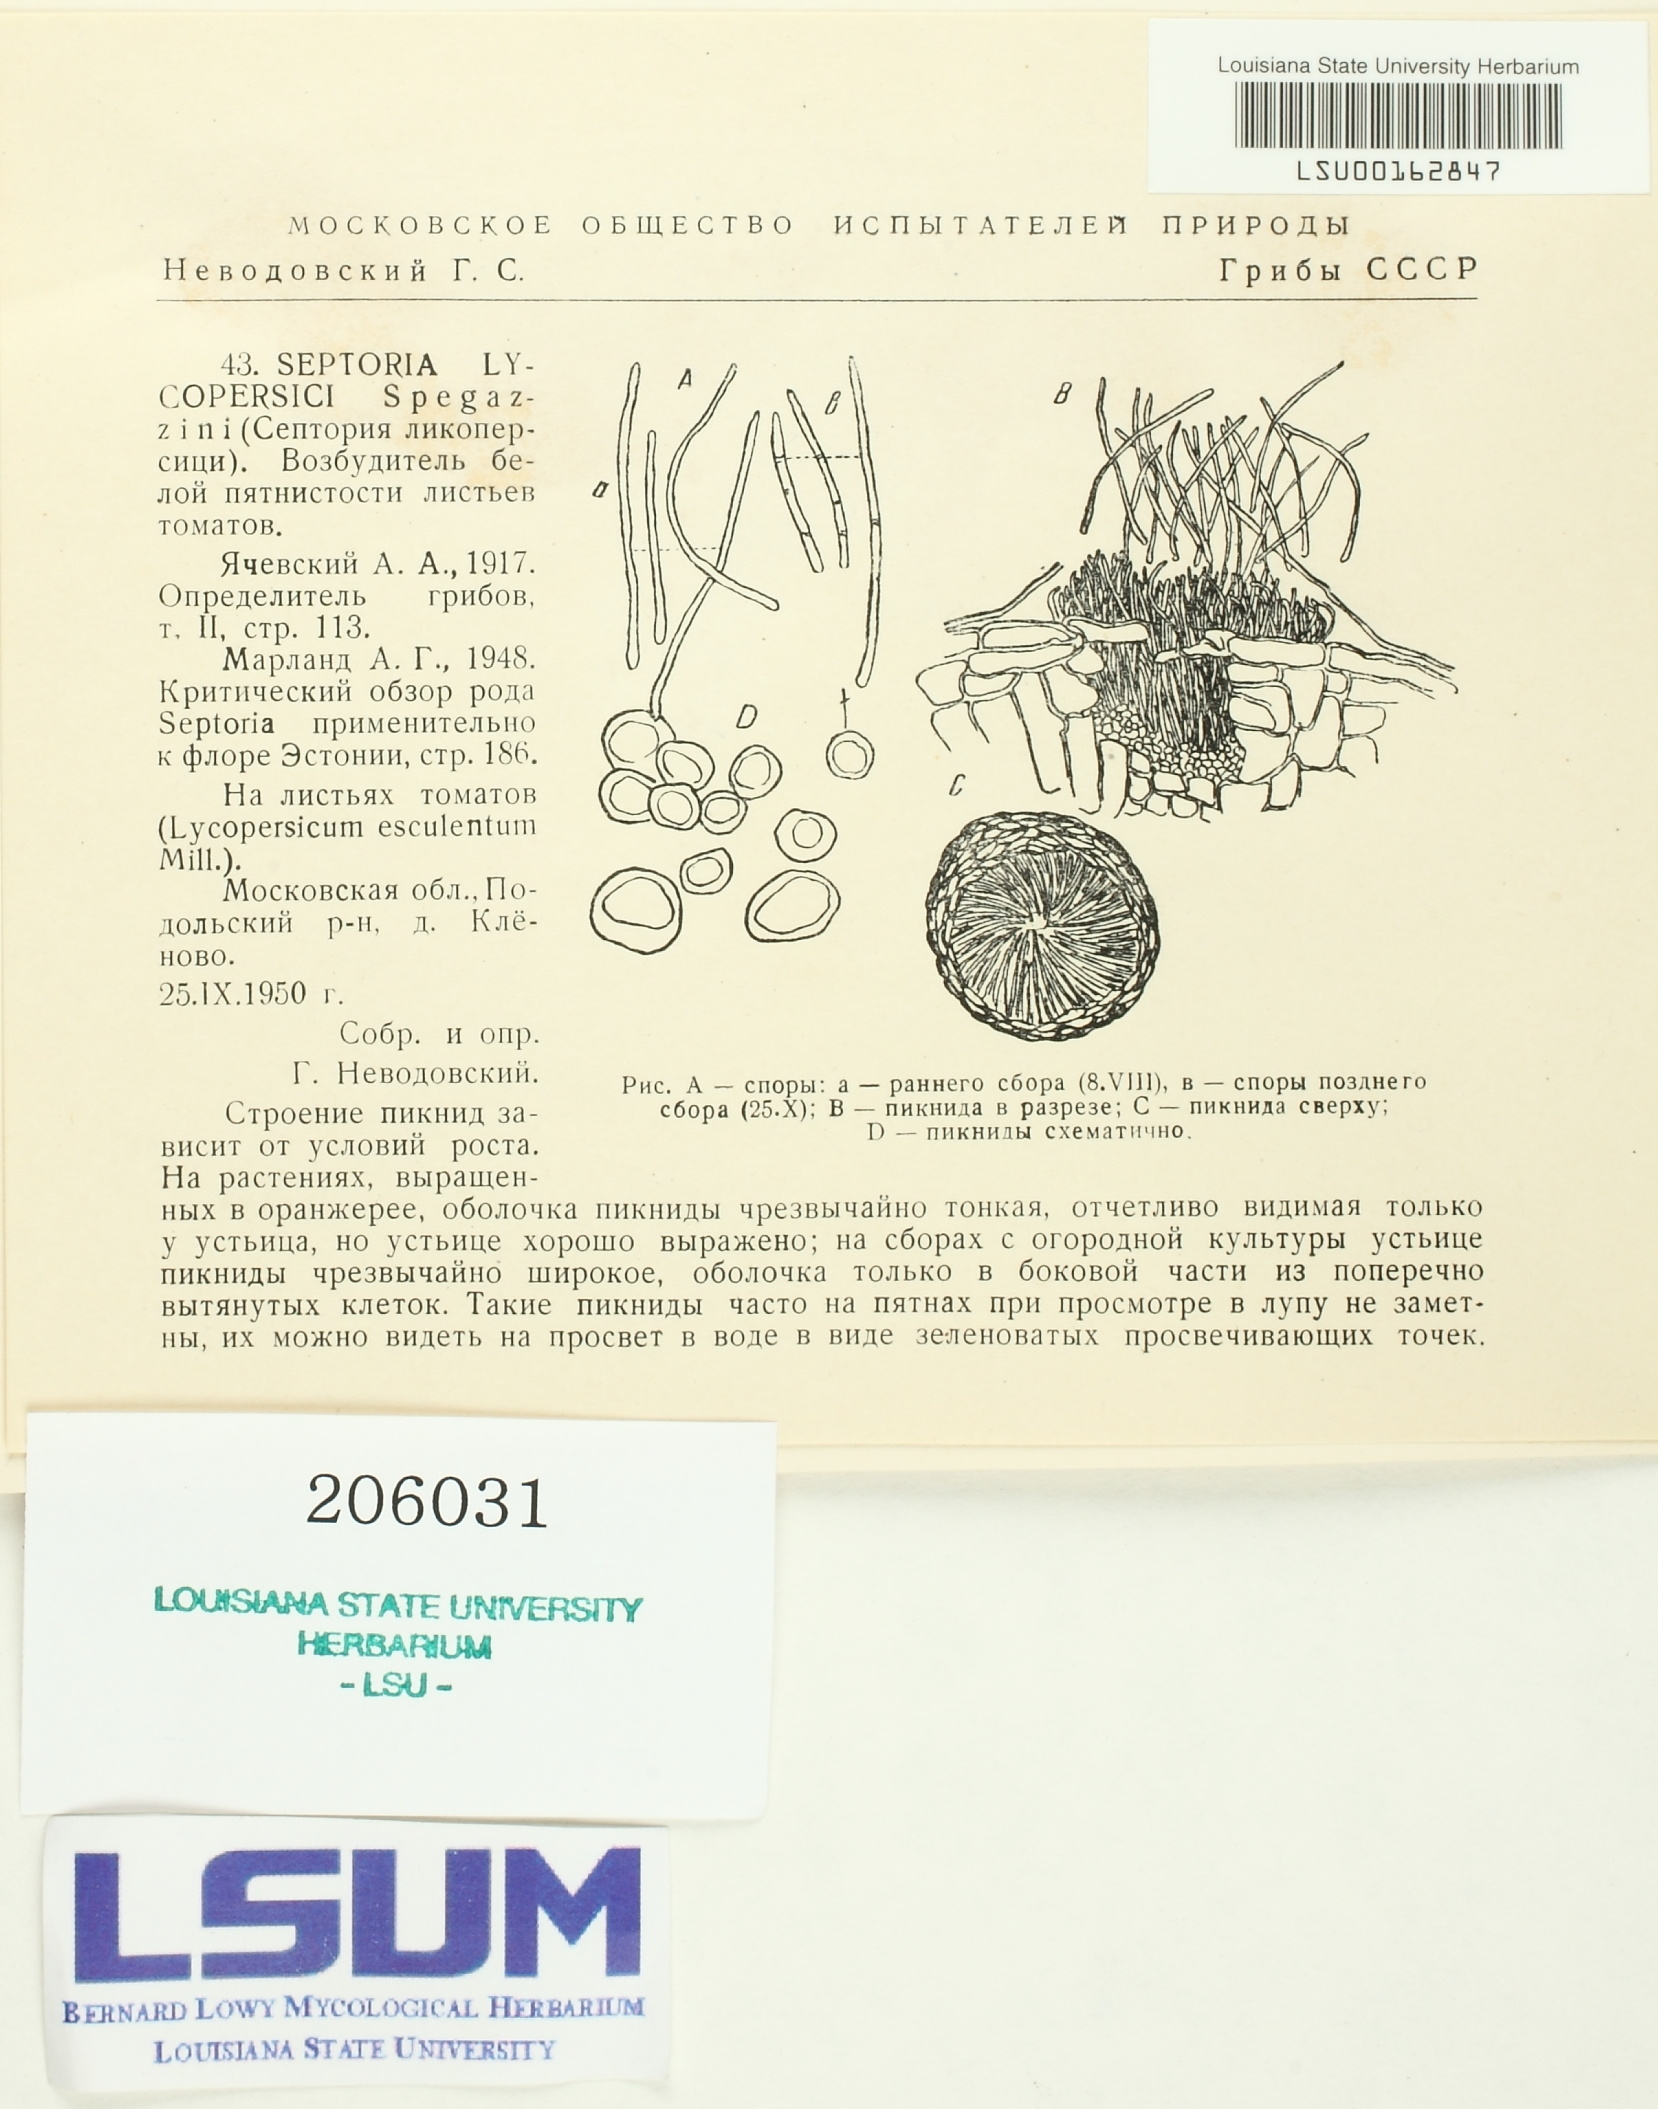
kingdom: Fungi
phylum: Ascomycota
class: Dothideomycetes
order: Mycosphaerellales
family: Mycosphaerellaceae
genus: Septoria
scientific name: Septoria lycopersici
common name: Septoria leaf spot of tomato
